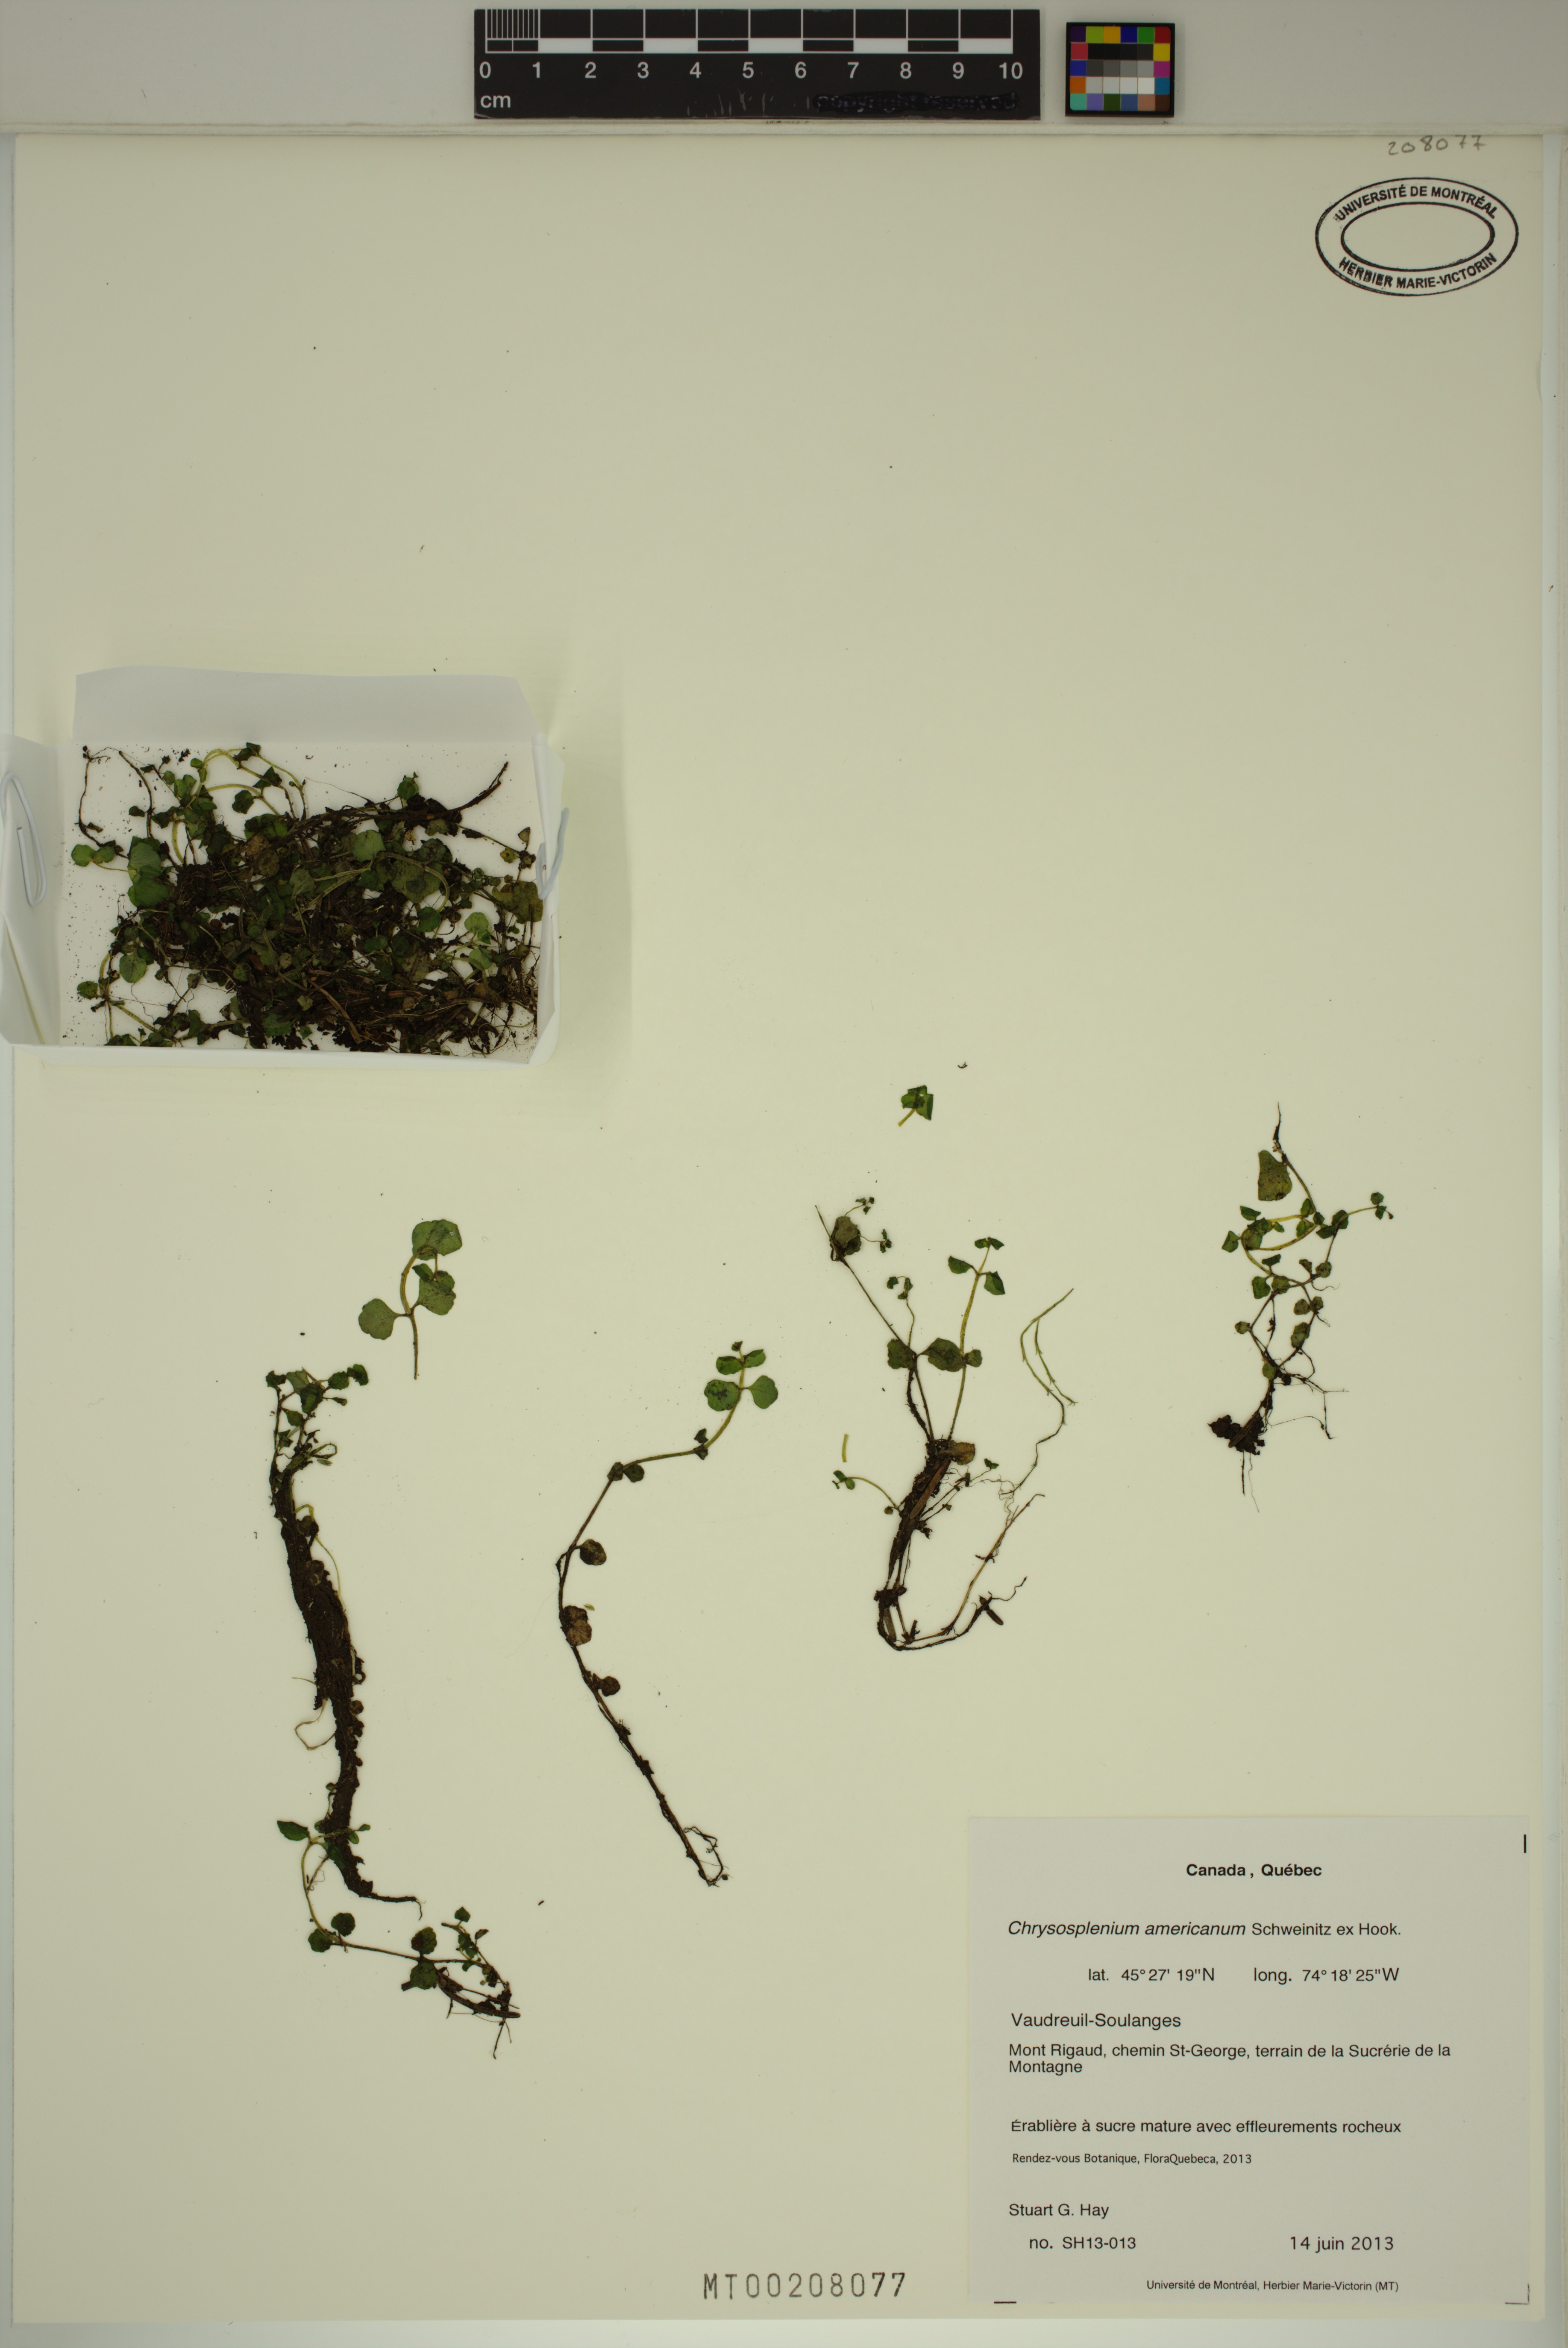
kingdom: Plantae
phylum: Tracheophyta
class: Magnoliopsida
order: Saxifragales
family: Saxifragaceae
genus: Chrysosplenium
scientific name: Chrysosplenium americanum
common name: American golden-saxifrage
